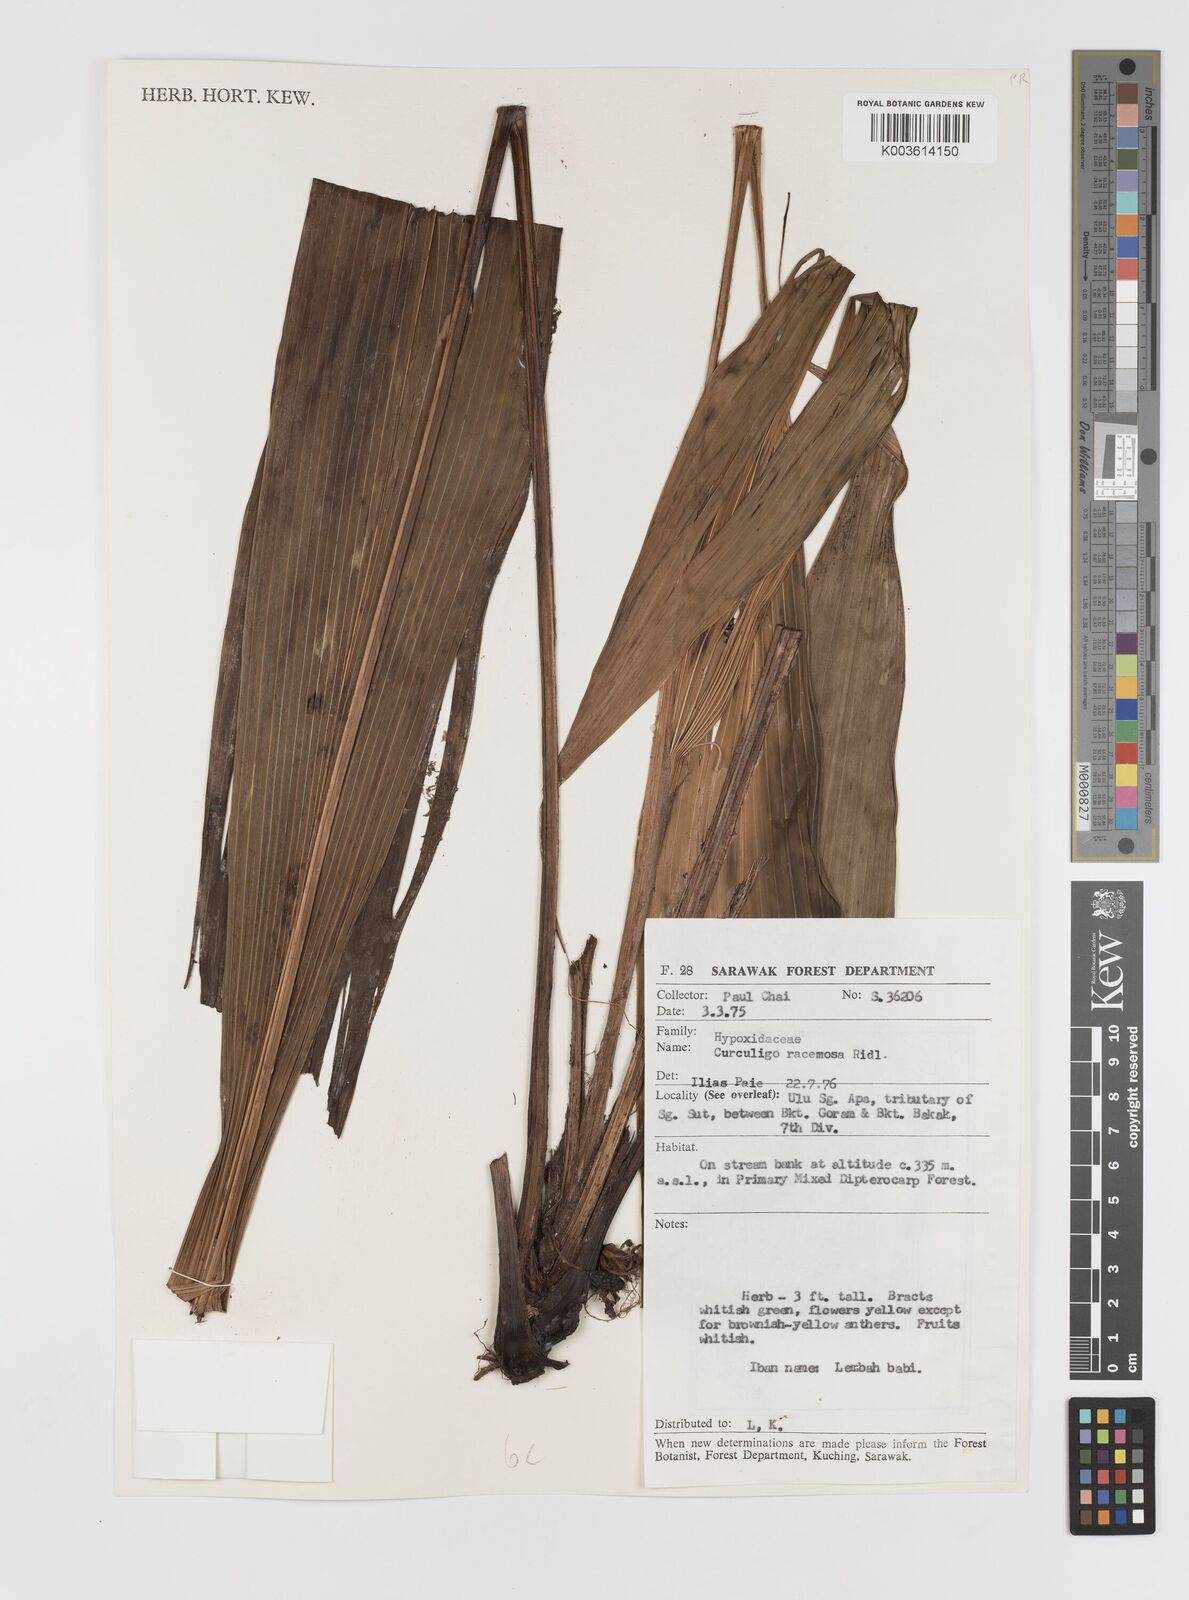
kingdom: Plantae
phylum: Tracheophyta
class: Liliopsida
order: Asparagales
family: Hypoxidaceae
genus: Curculigo
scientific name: Curculigo racemosa
